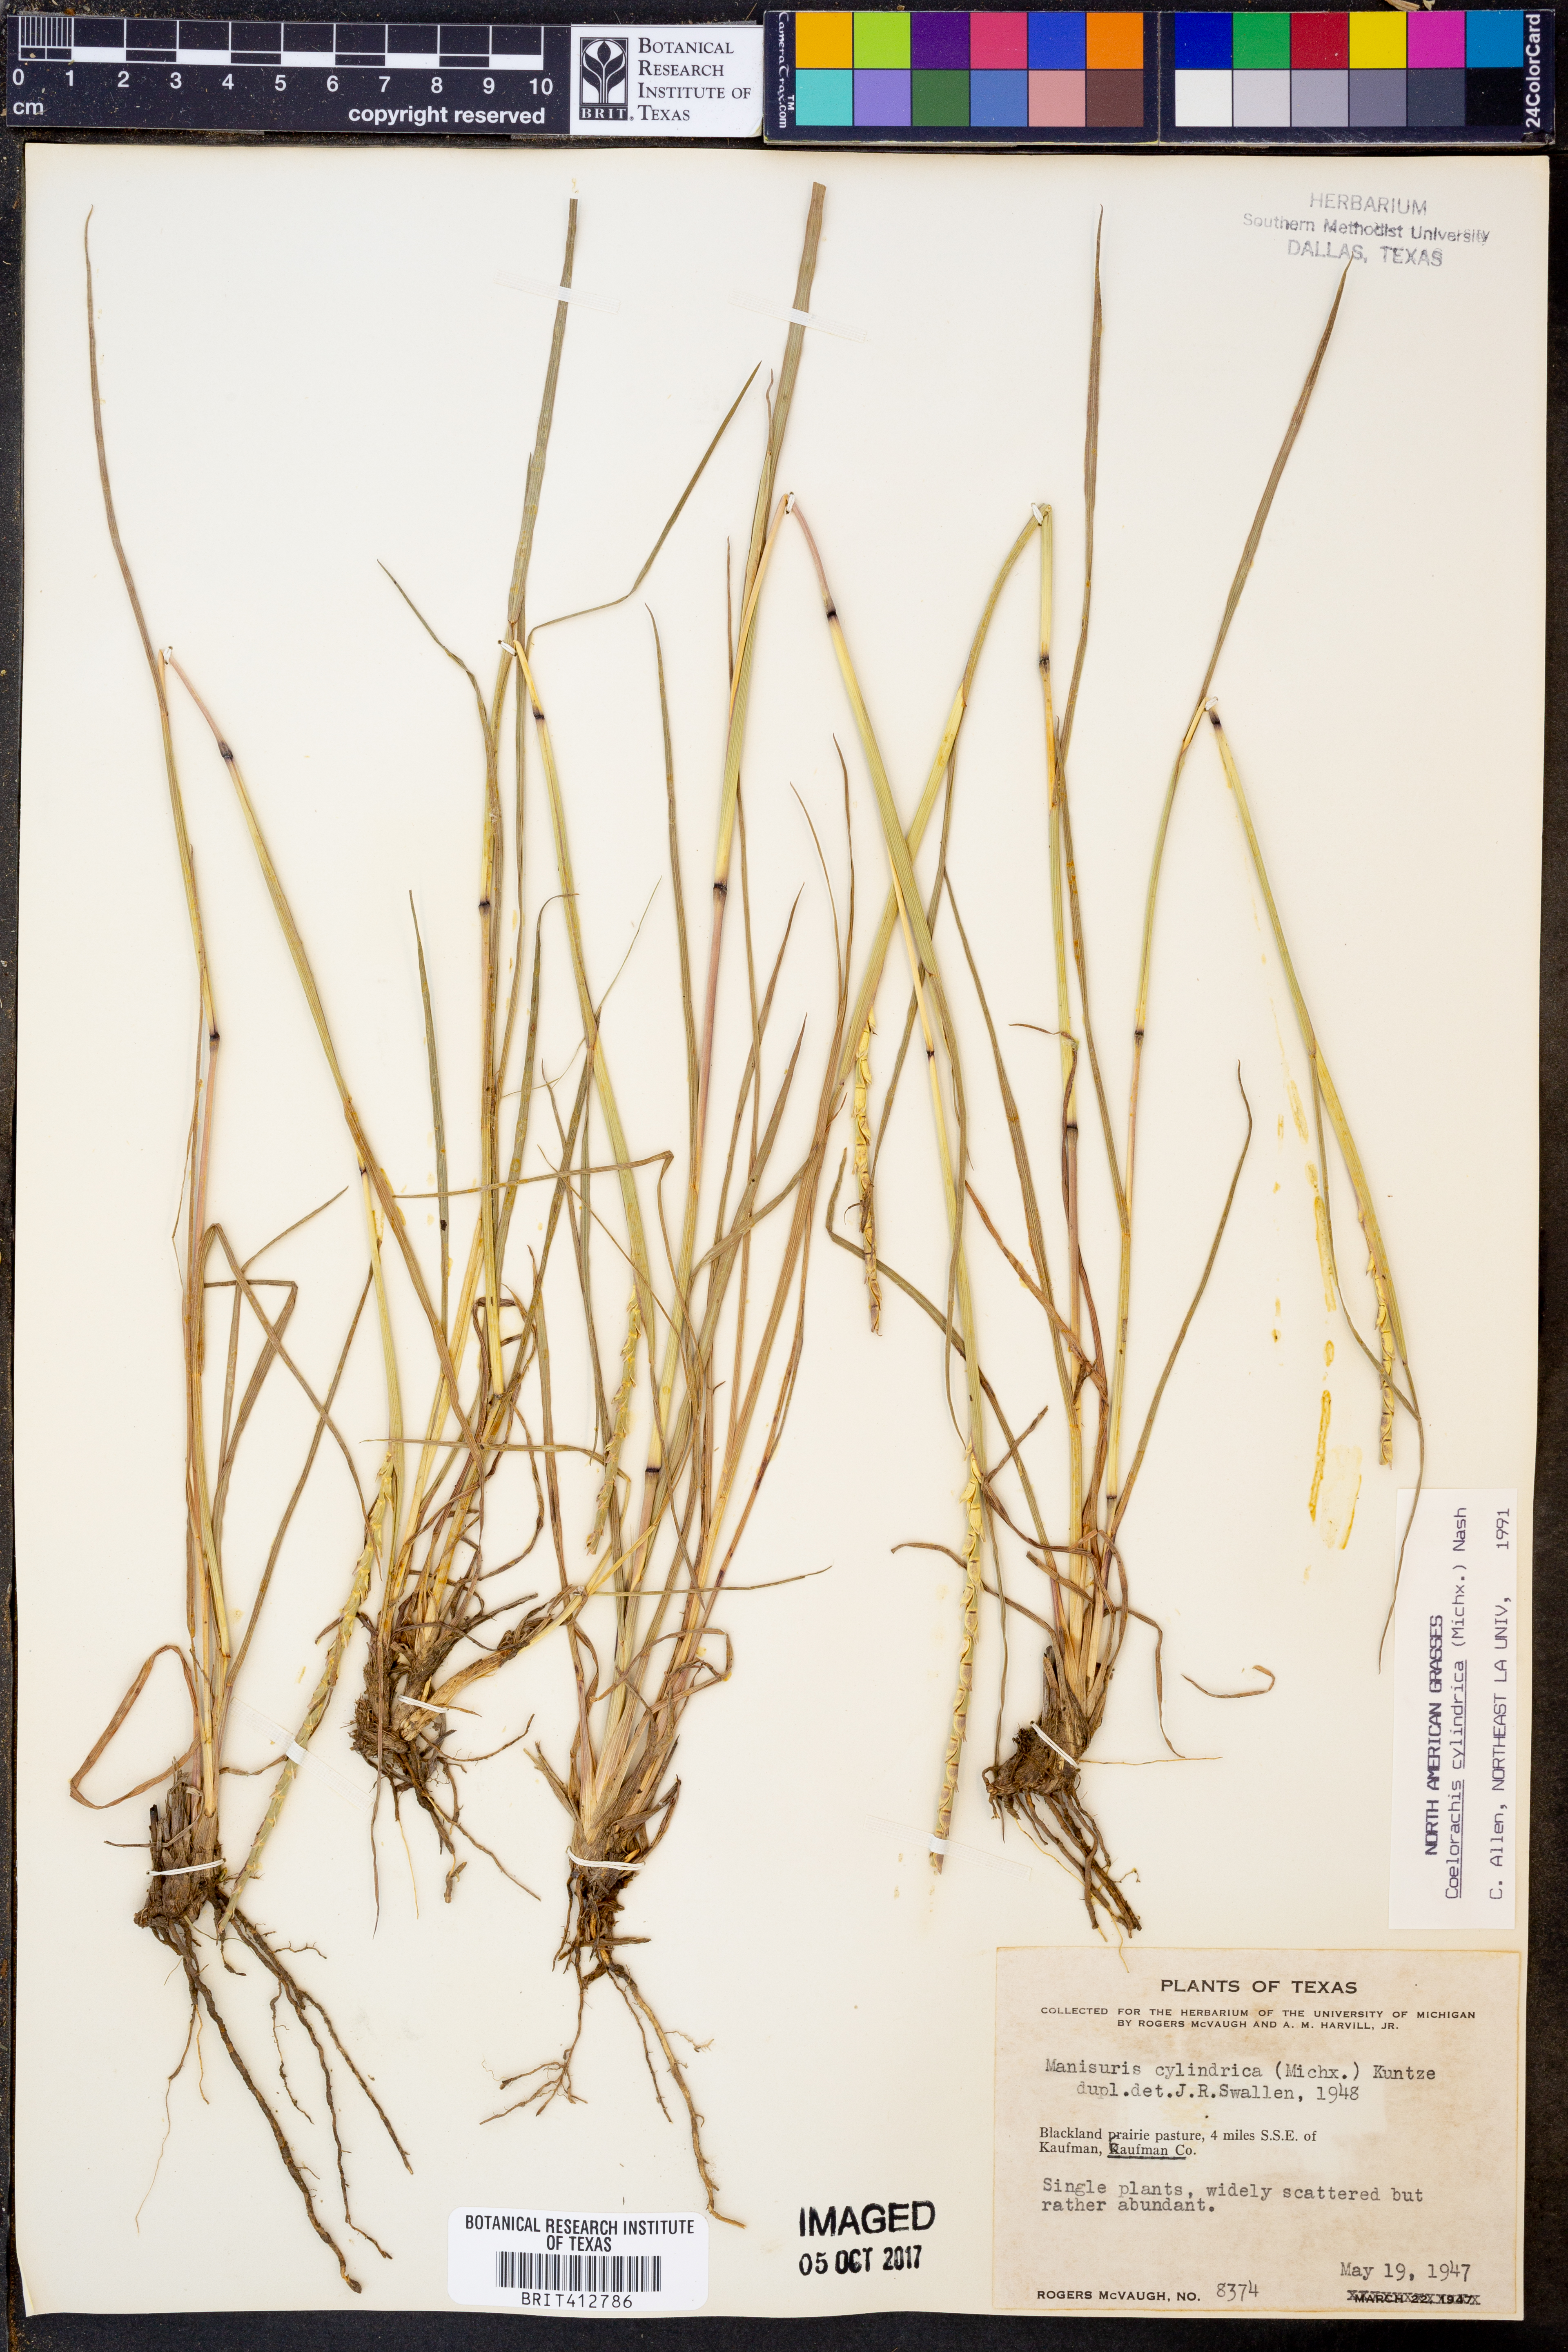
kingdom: Plantae
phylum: Tracheophyta
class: Liliopsida
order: Poales
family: Poaceae
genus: Rottboellia
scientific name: Rottboellia campestris
